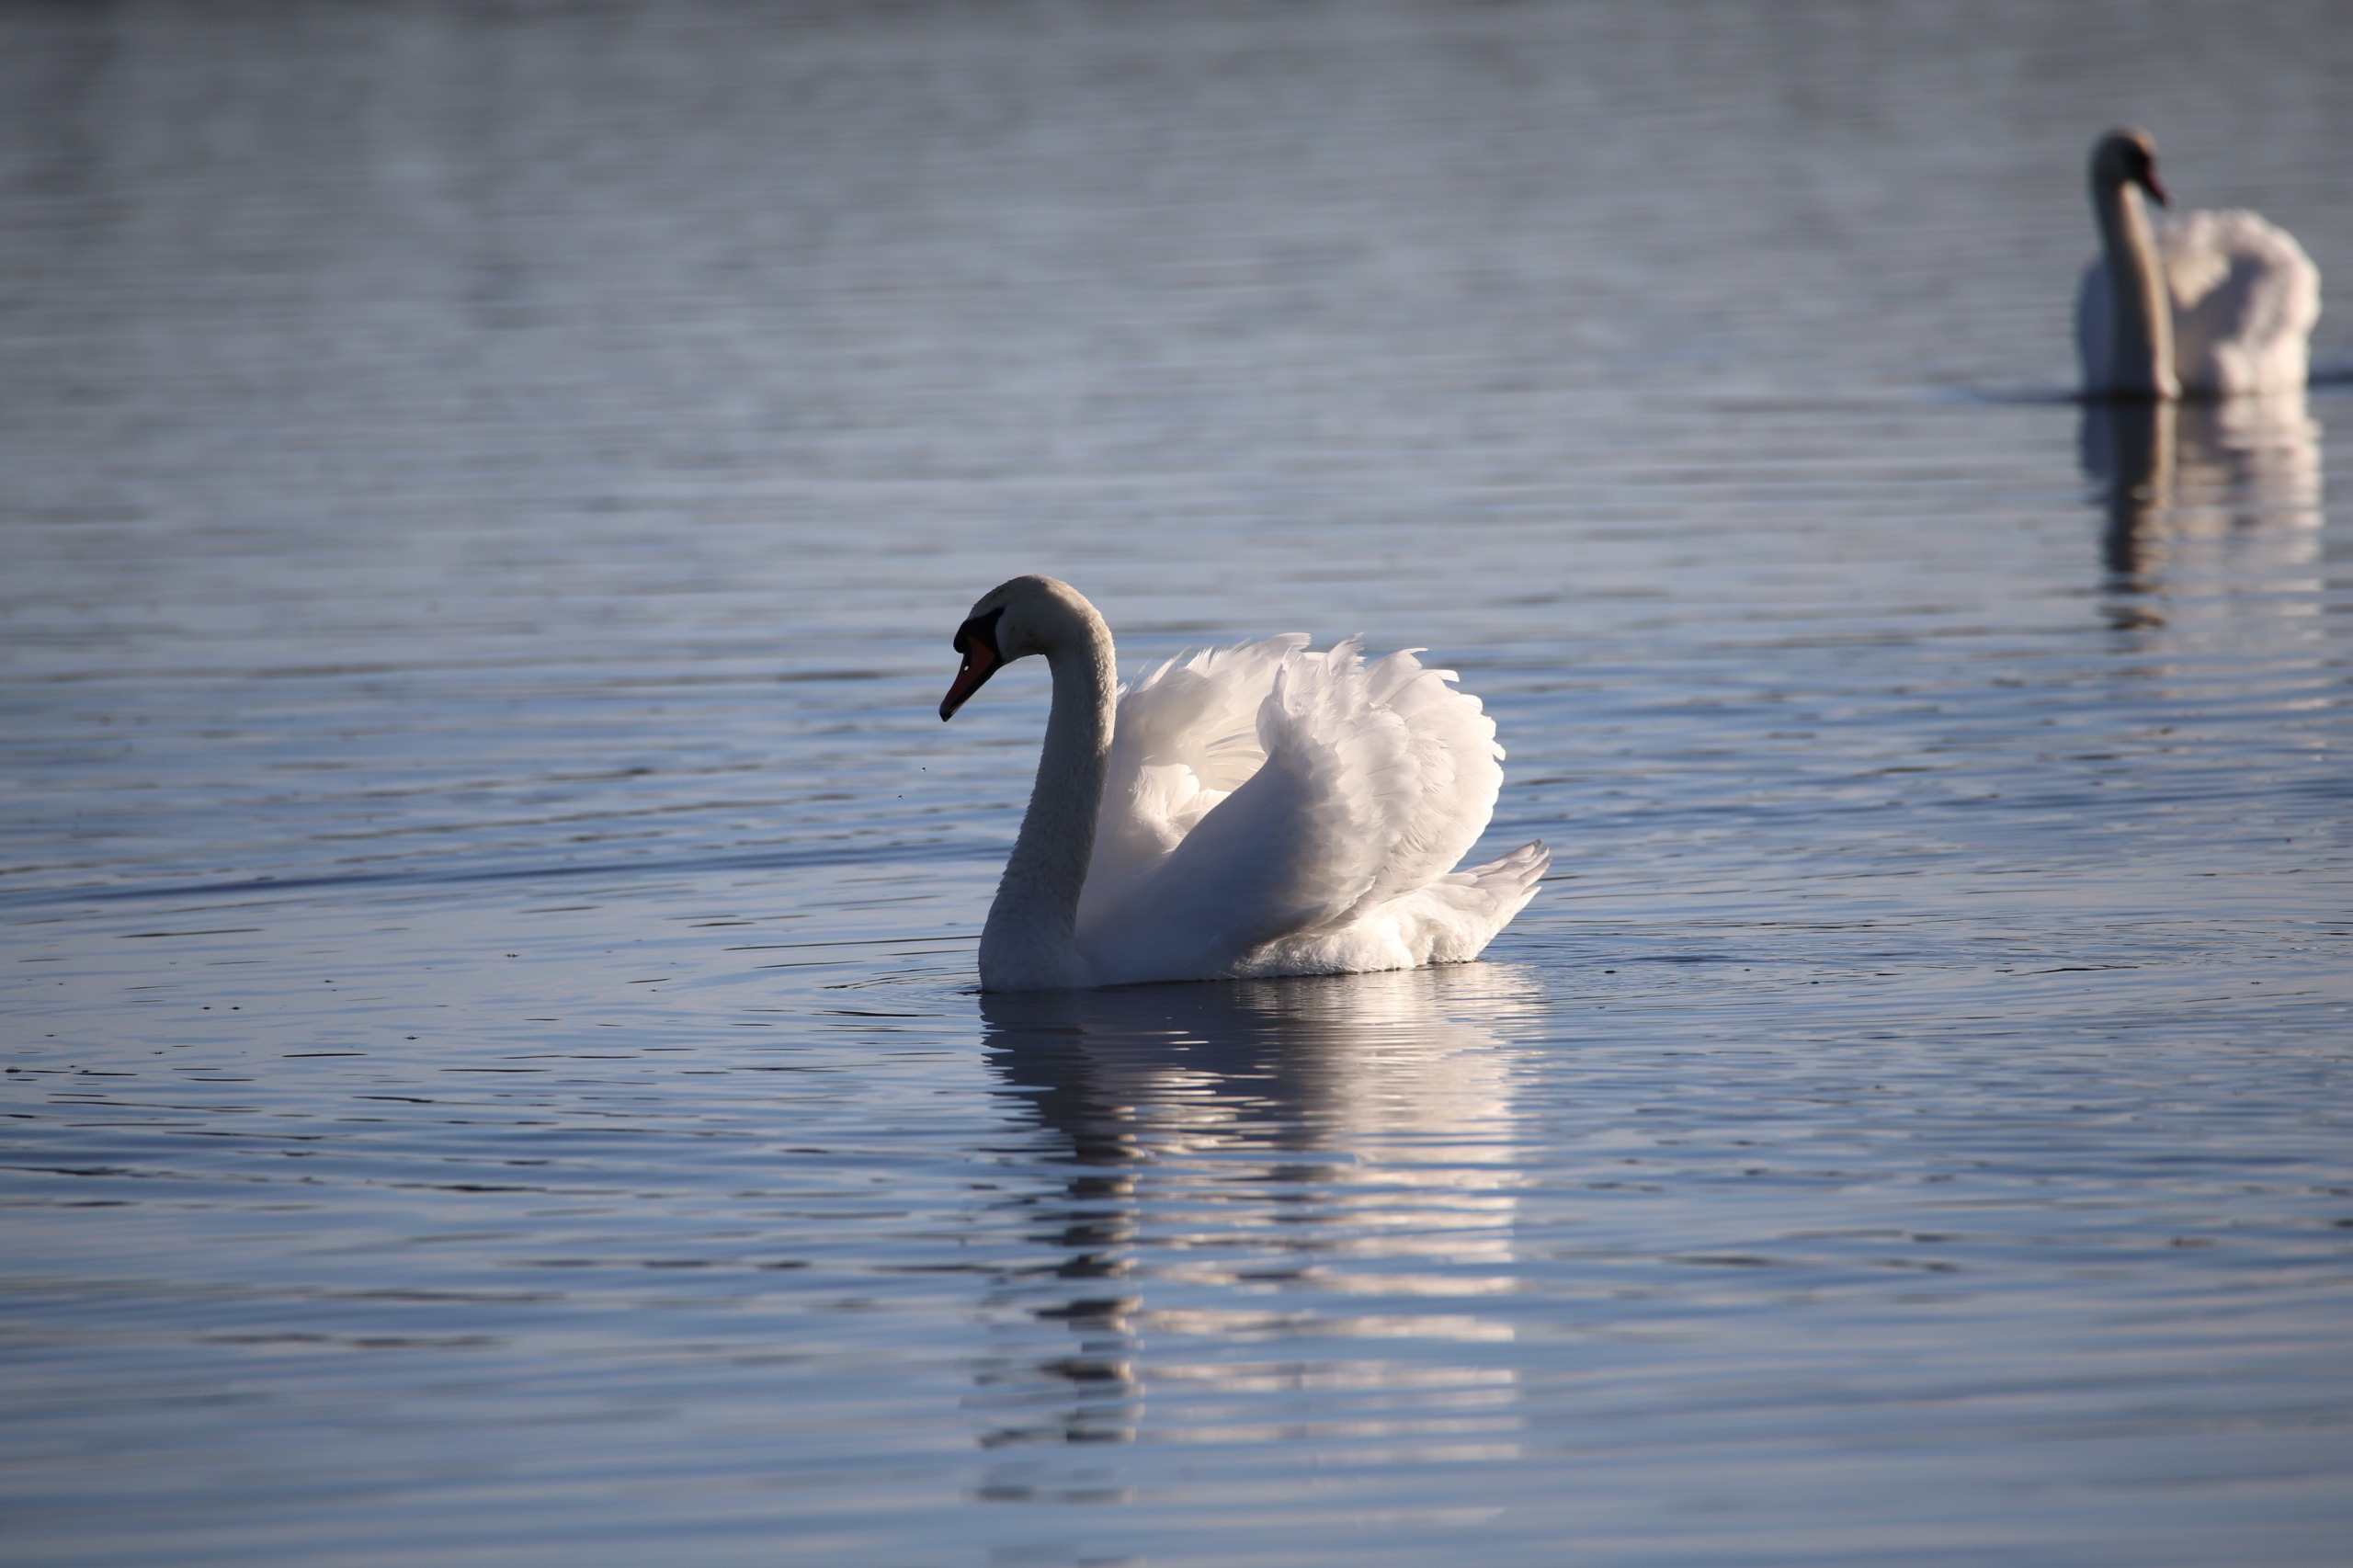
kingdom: Animalia
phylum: Chordata
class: Aves
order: Anseriformes
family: Anatidae
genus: Cygnus
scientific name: Cygnus olor
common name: Knopsvane
